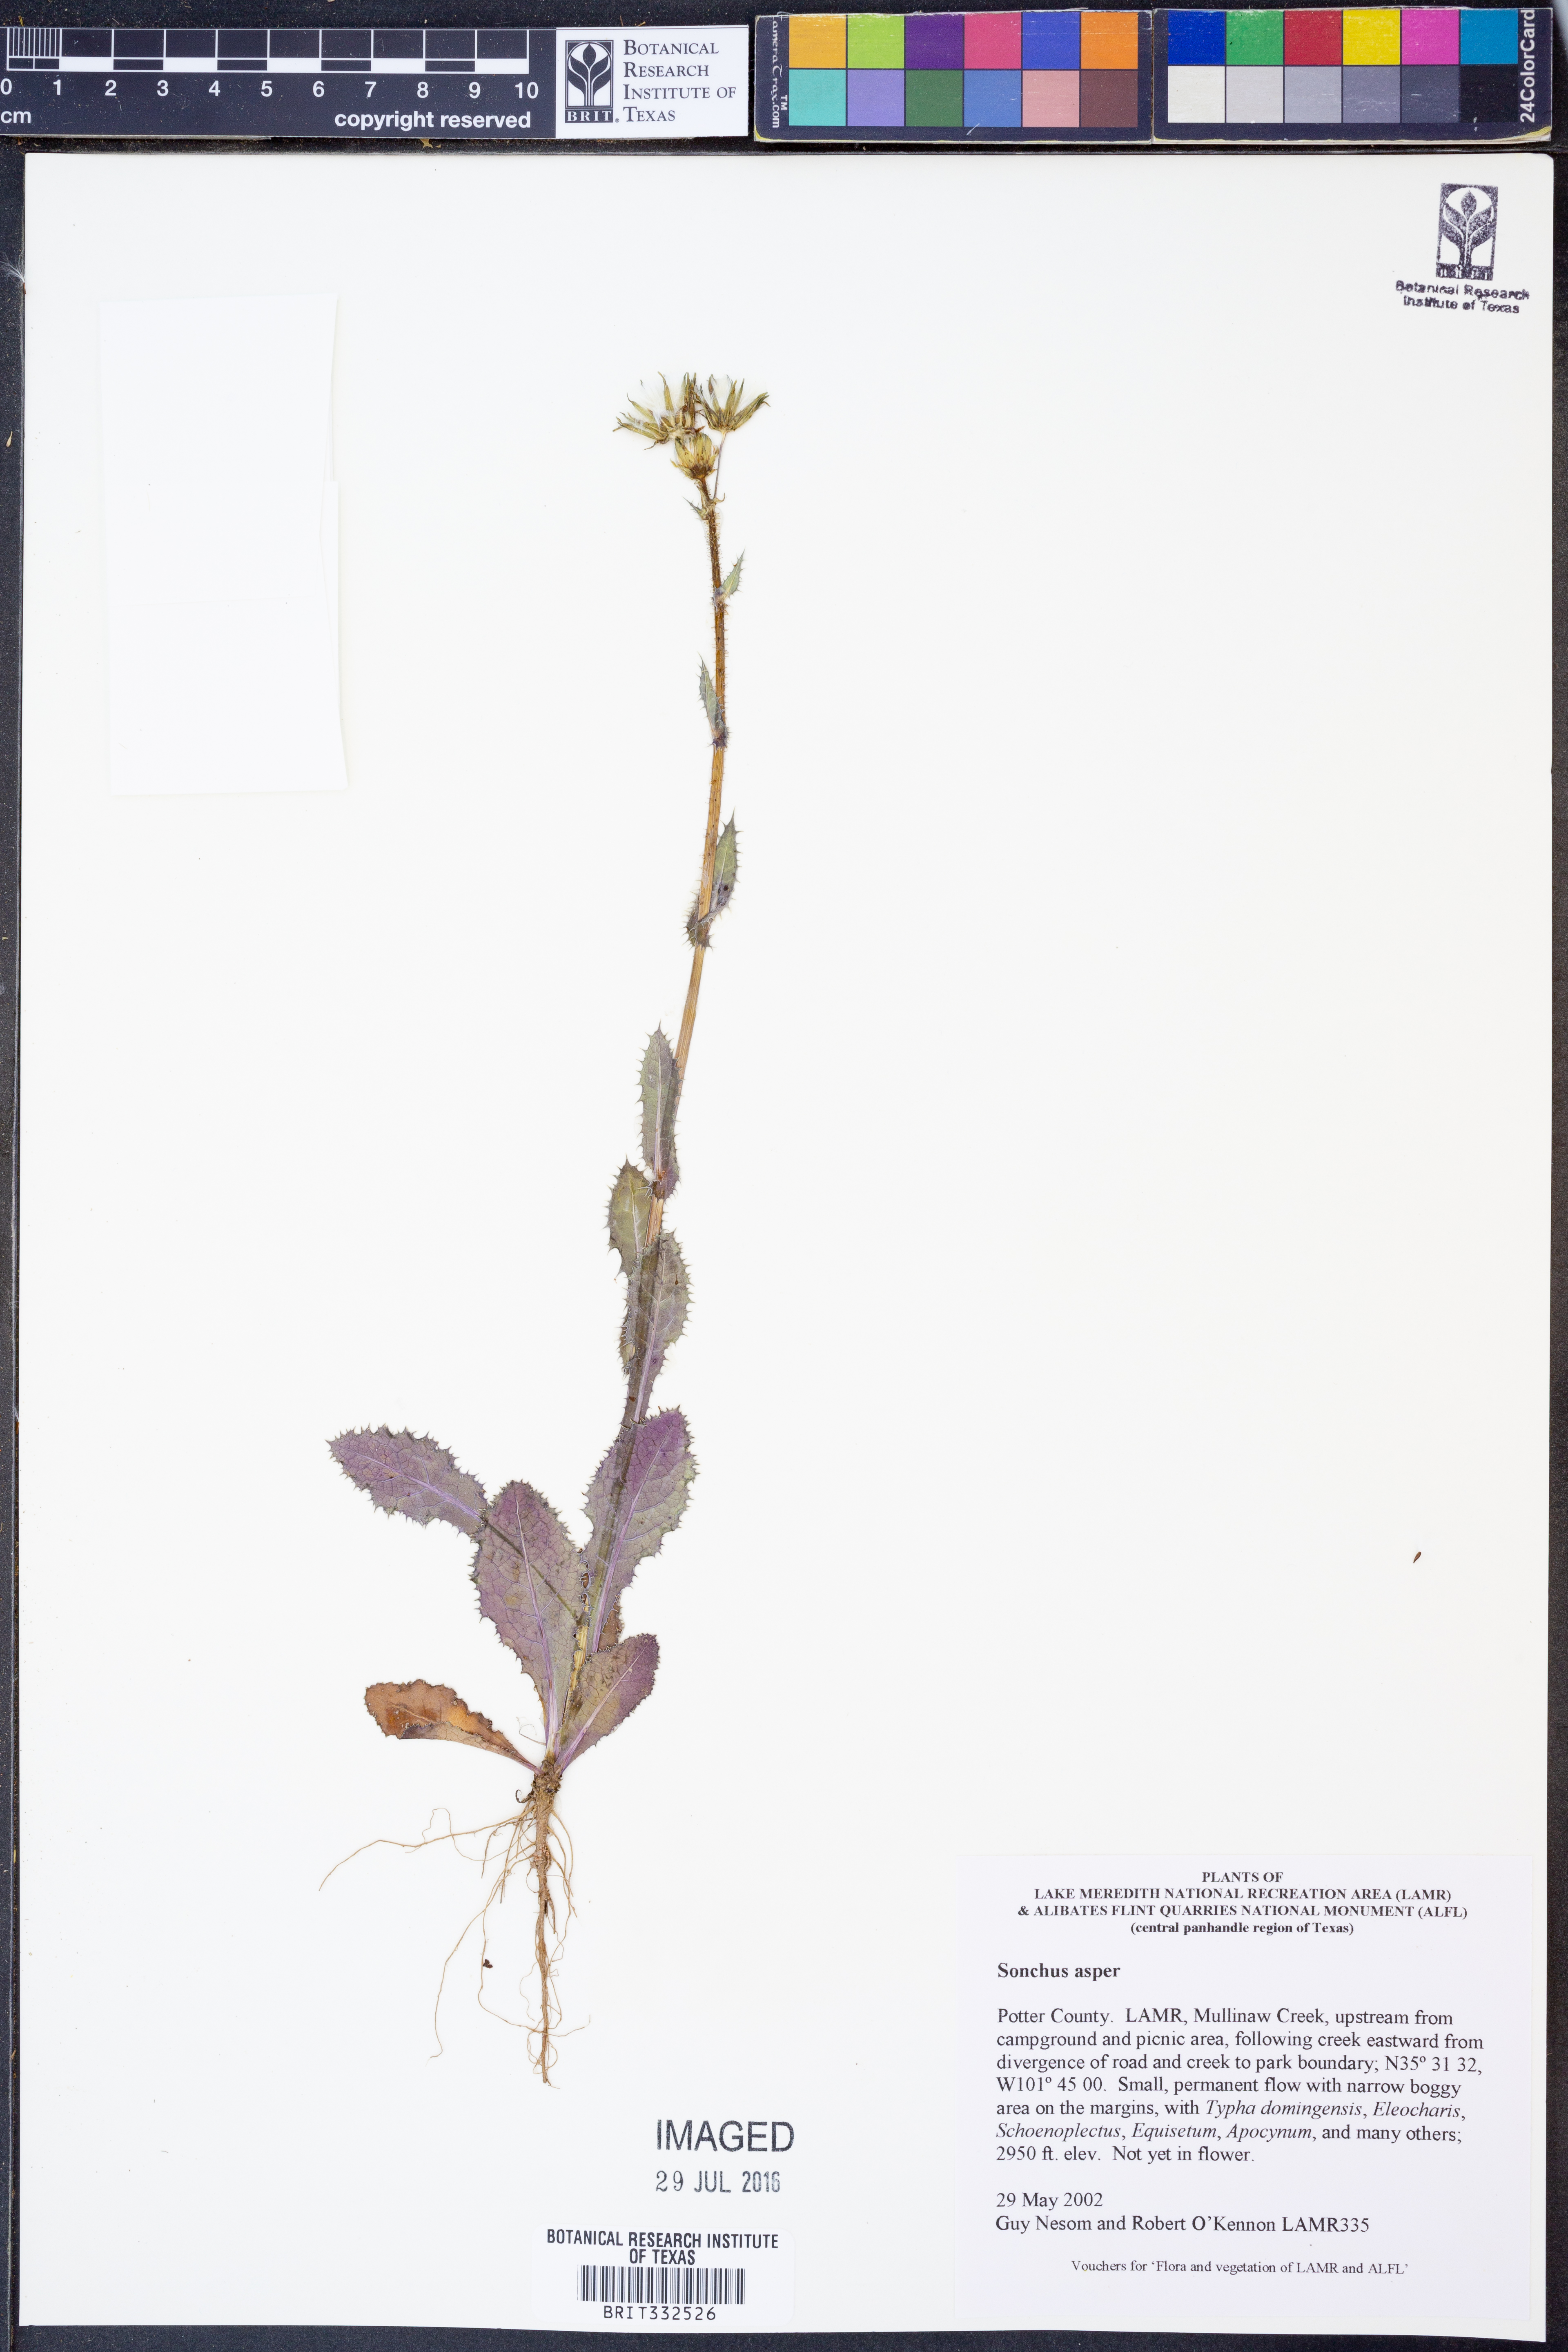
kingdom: Plantae
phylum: Tracheophyta
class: Magnoliopsida
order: Asterales
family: Asteraceae
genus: Sonchus
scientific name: Sonchus asper
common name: Prickly sow-thistle
